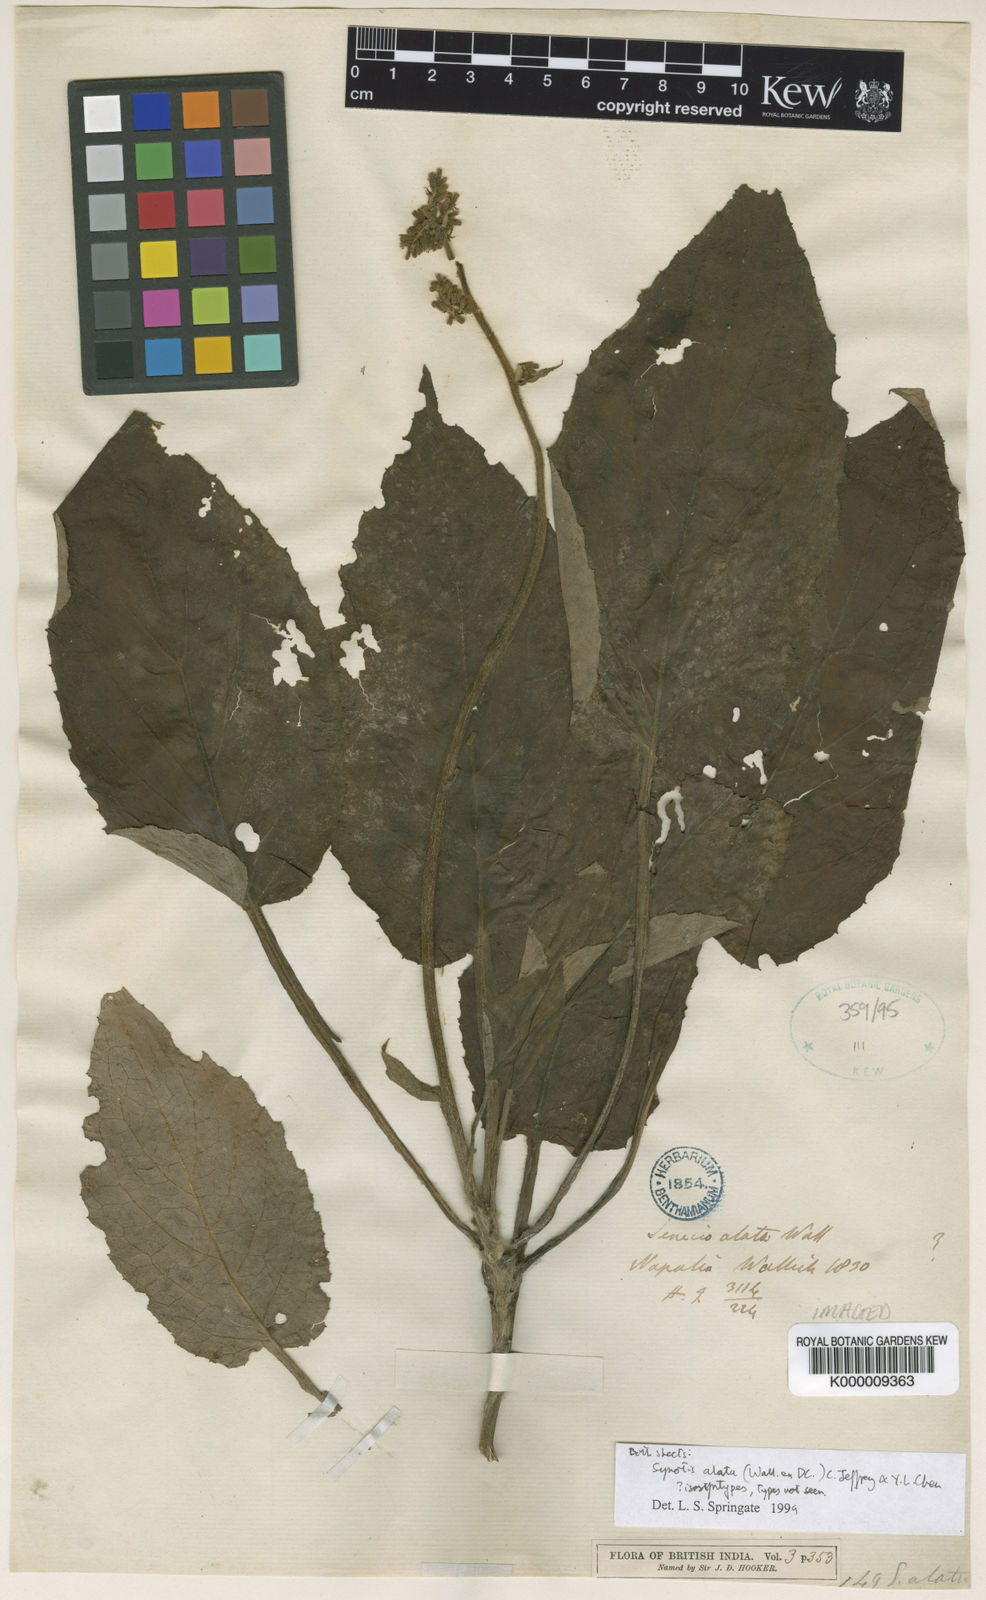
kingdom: Plantae
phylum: Tracheophyta
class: Magnoliopsida
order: Asterales
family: Asteraceae
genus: Synotis
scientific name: Synotis alata
